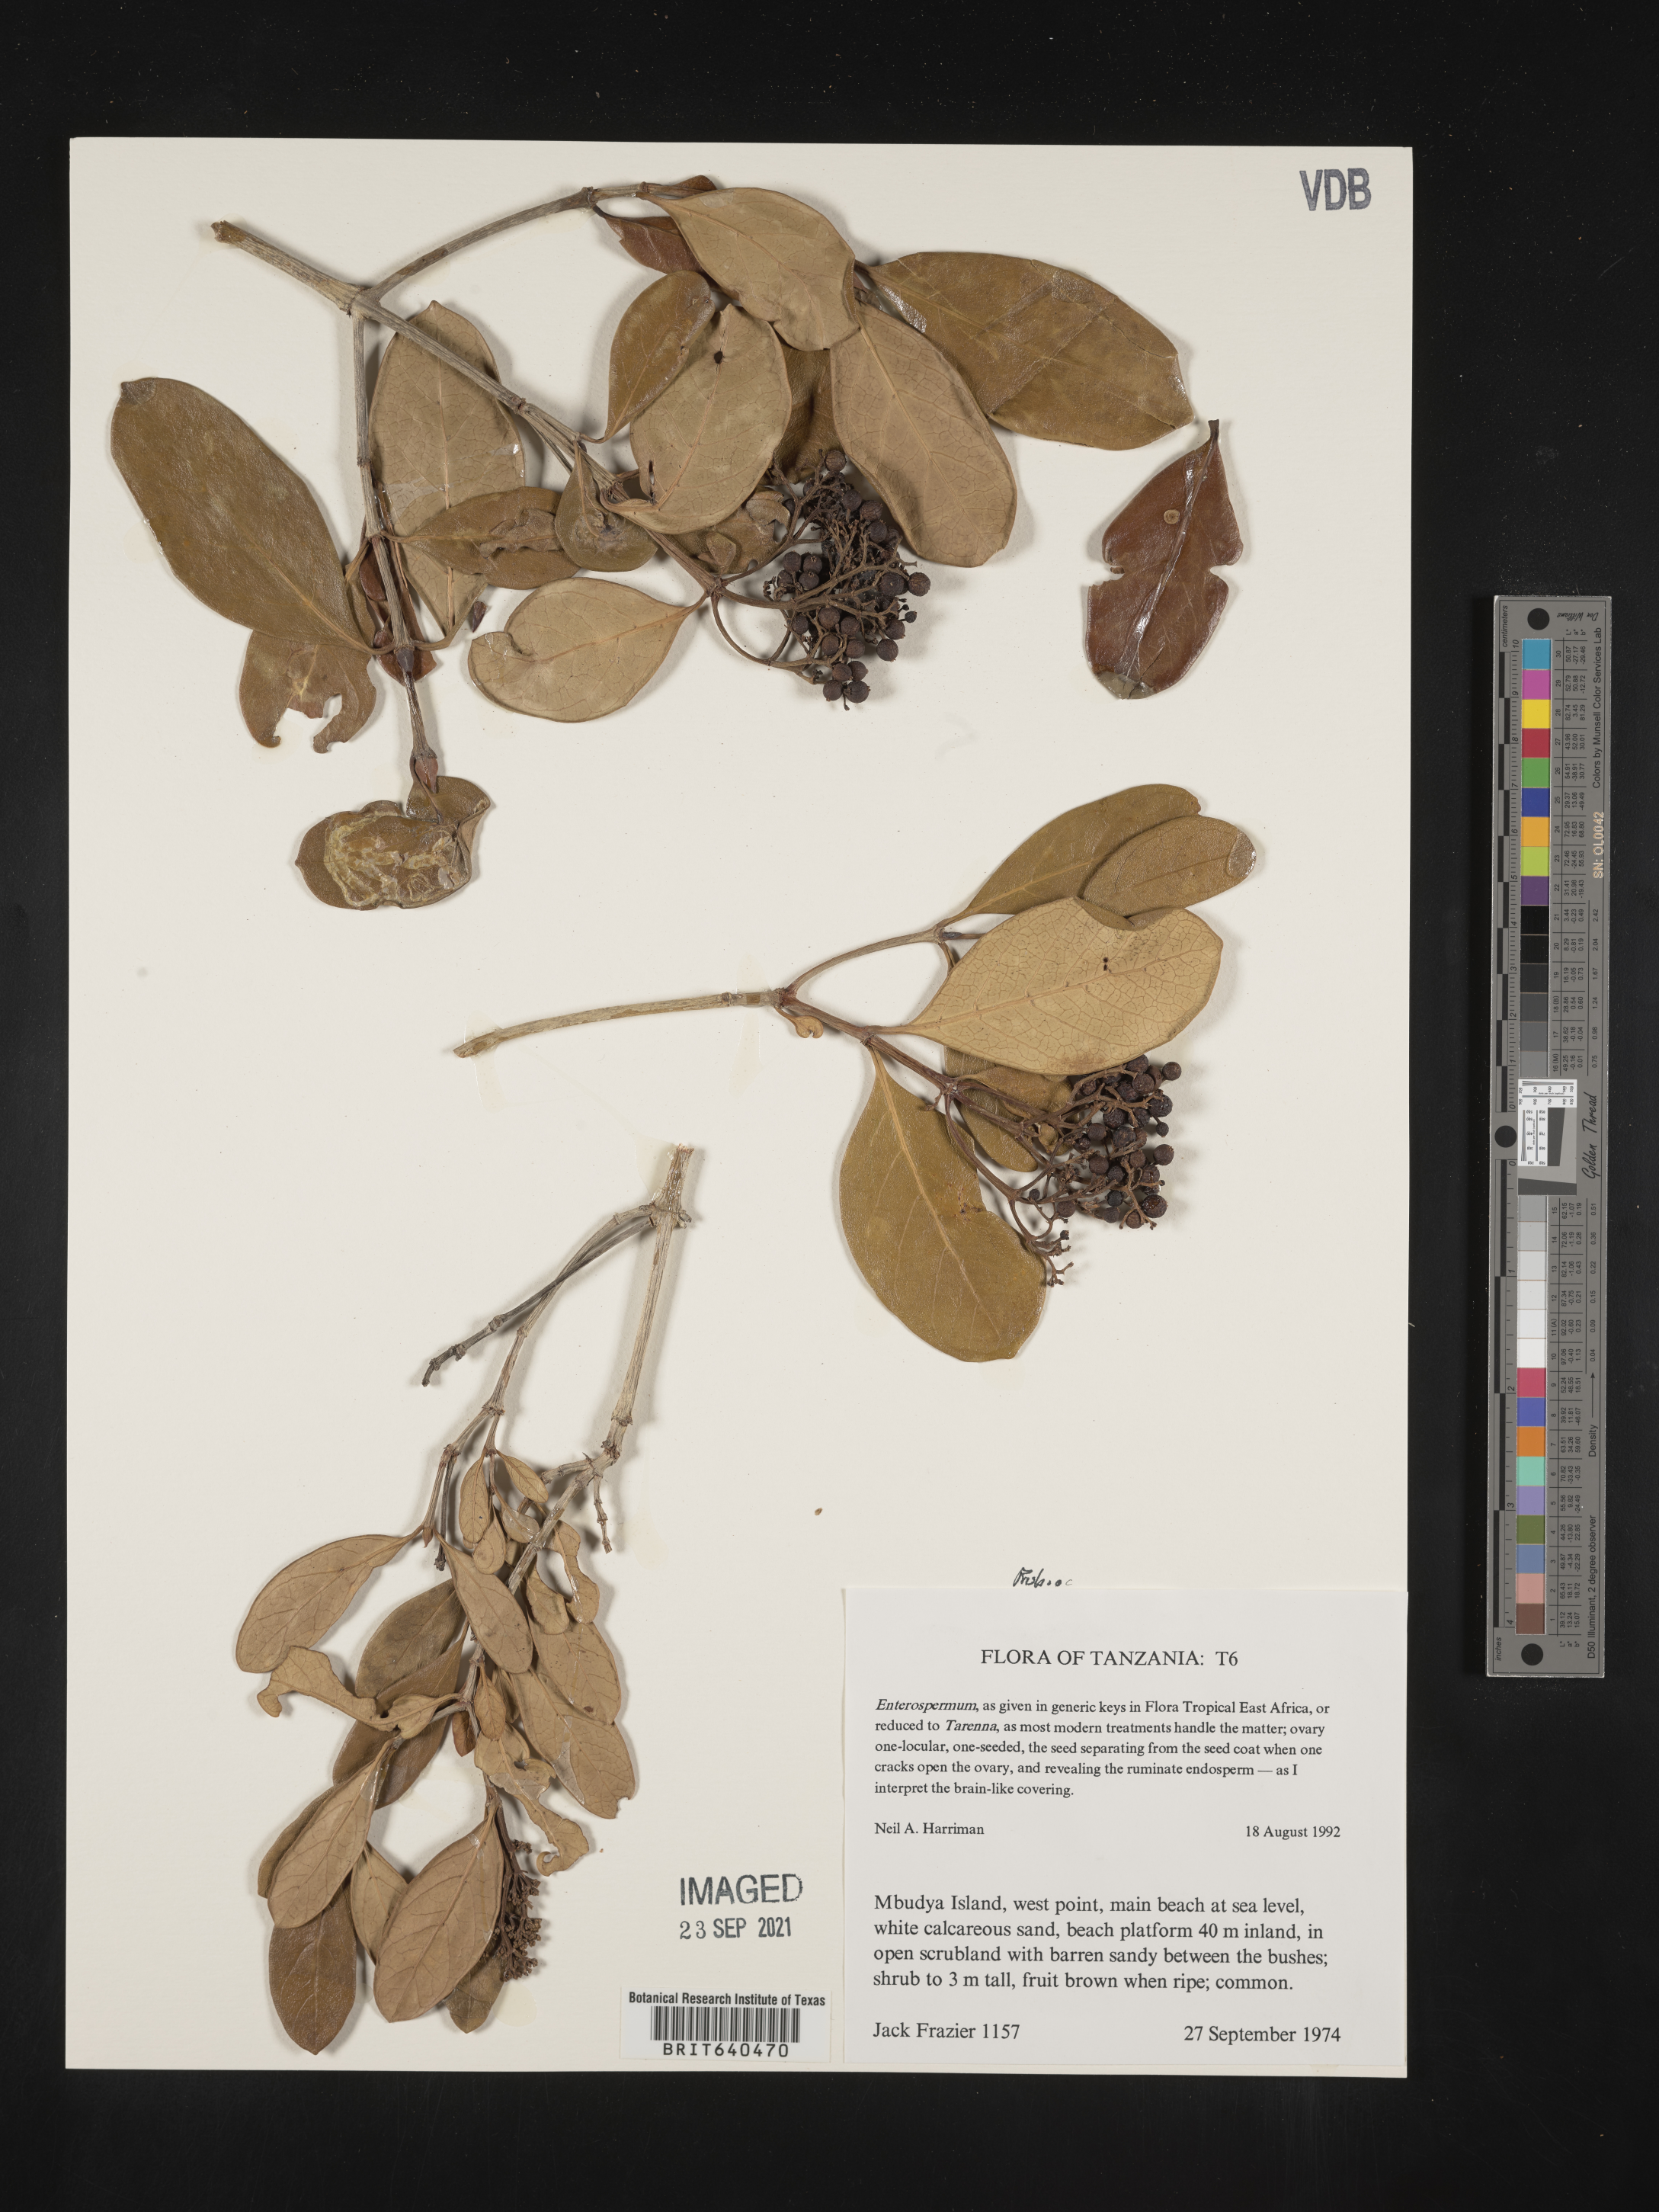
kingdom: Plantae
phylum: Tracheophyta
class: Magnoliopsida
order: Gentianales
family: Rubiaceae
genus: Coptosperma
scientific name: Coptosperma
